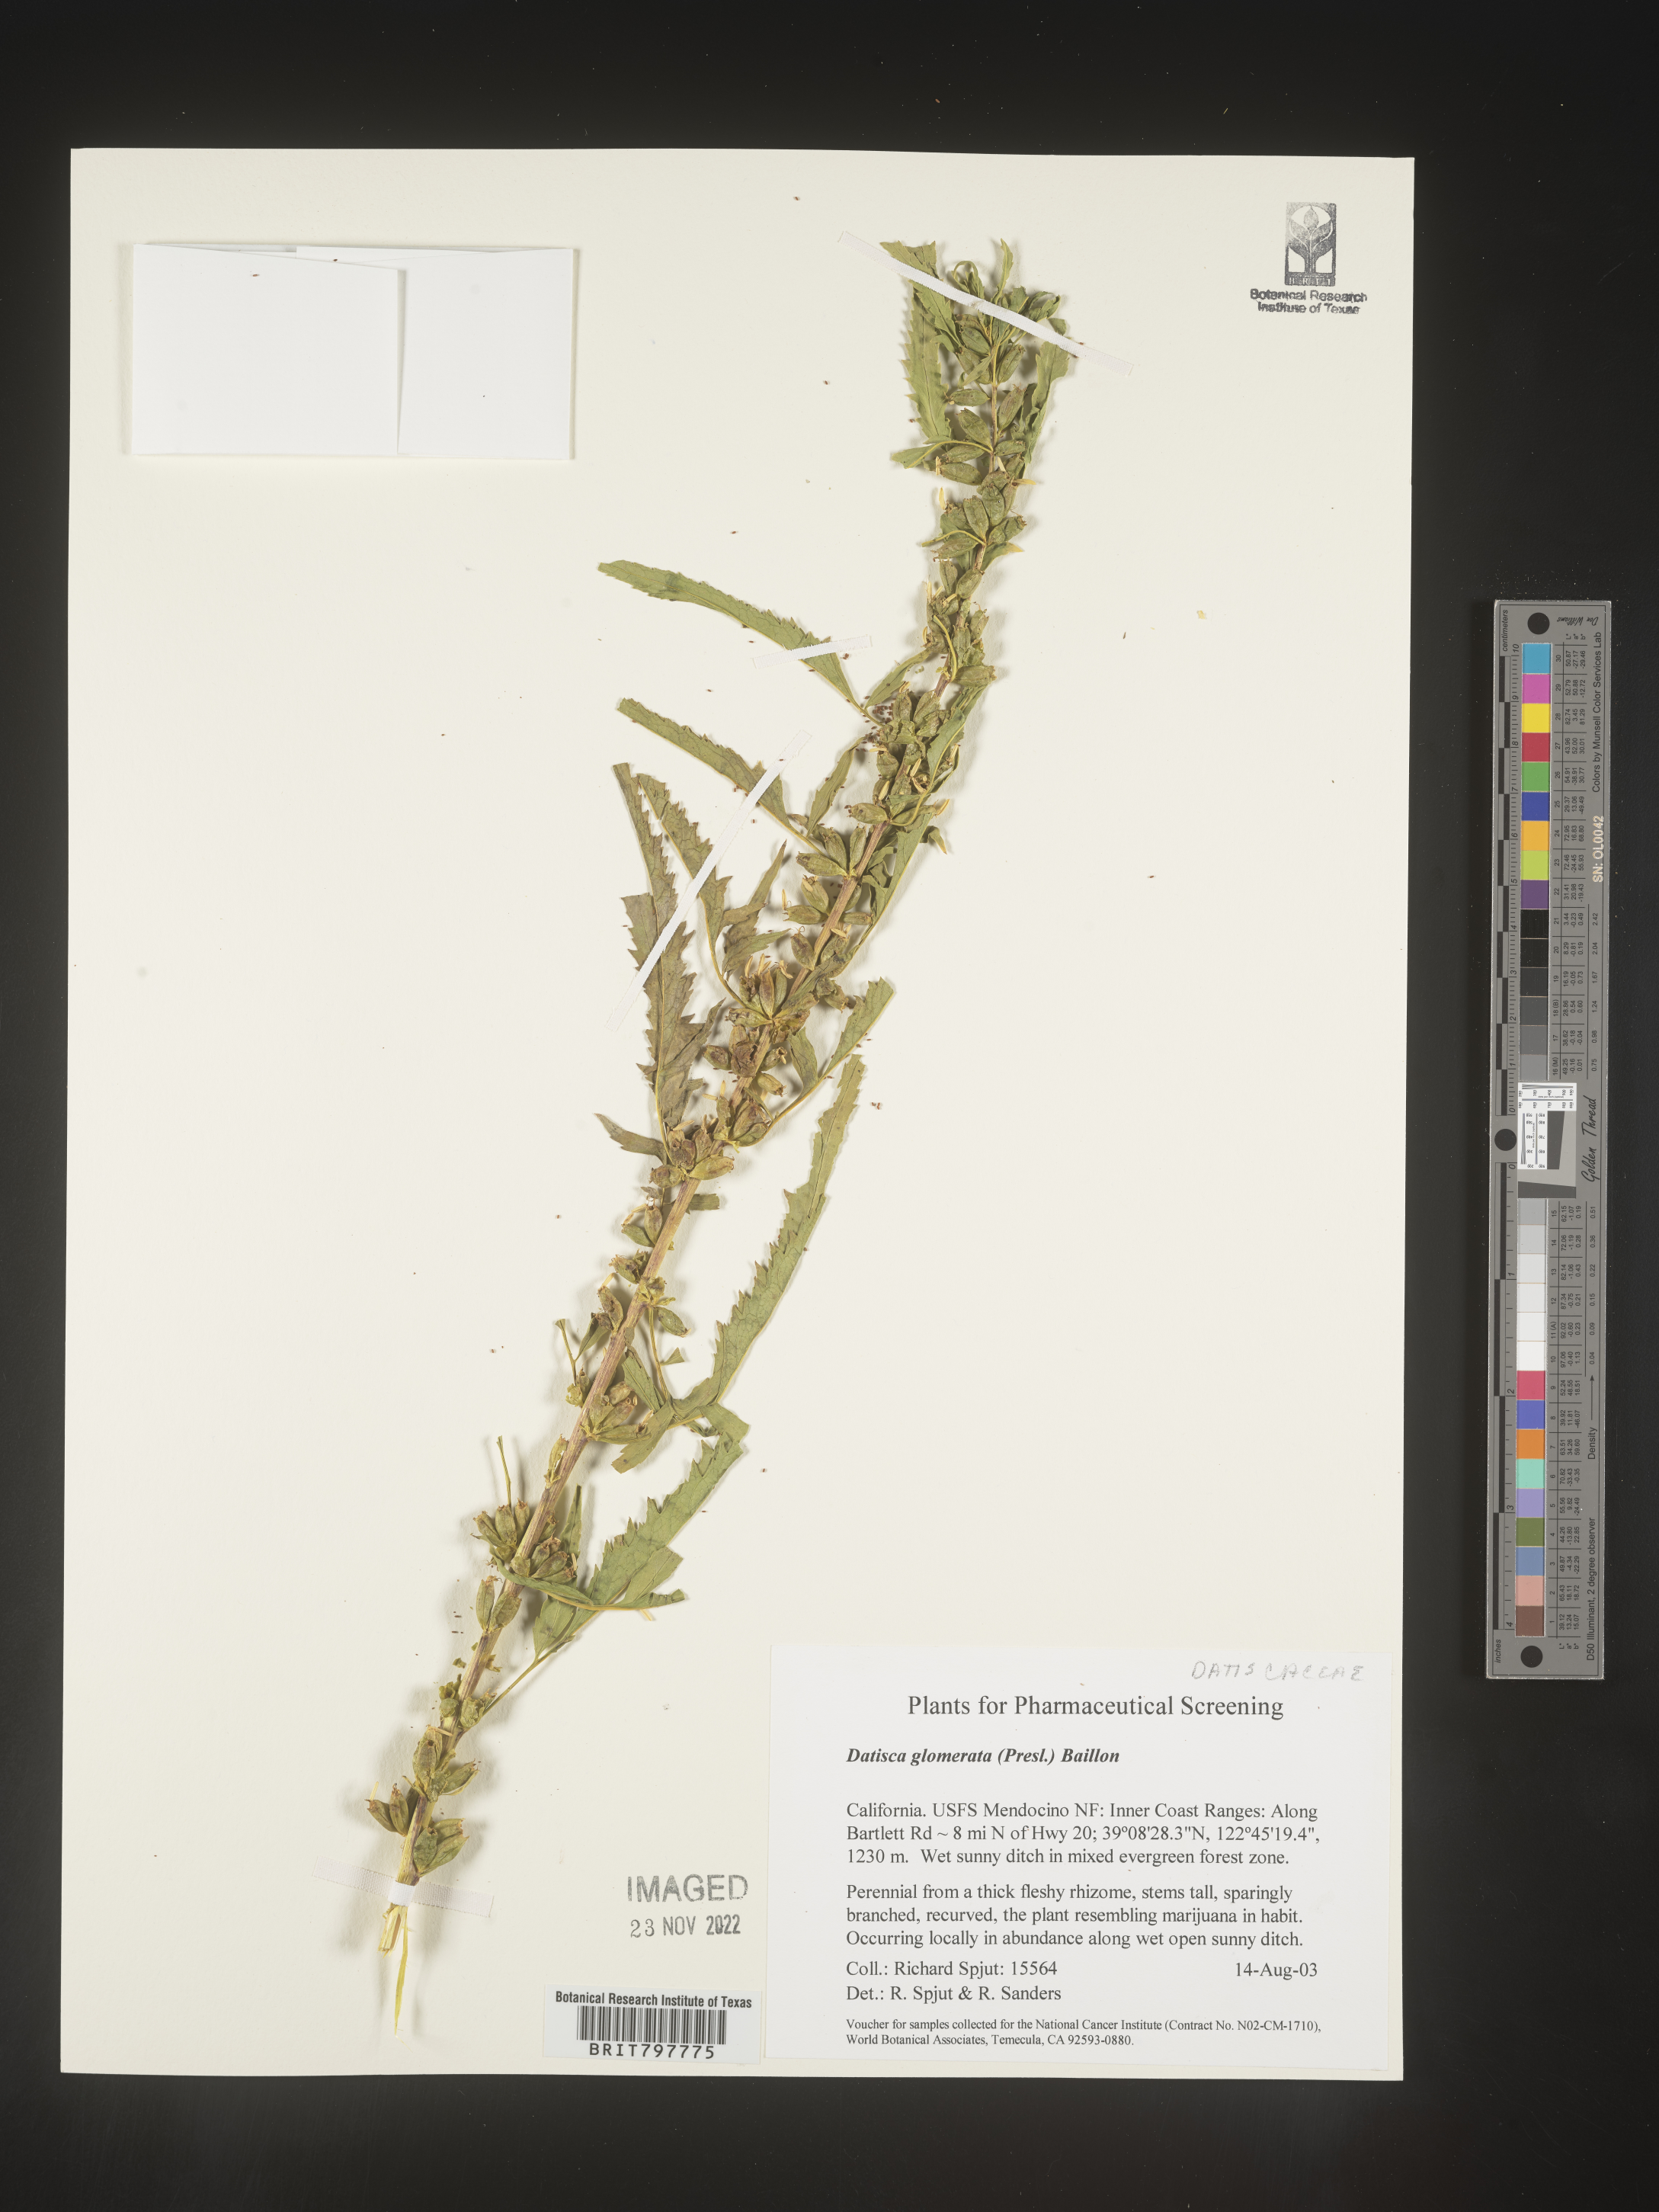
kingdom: Plantae
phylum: Tracheophyta
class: Magnoliopsida
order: Cucurbitales
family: Datiscaceae
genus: Datisca
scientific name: Datisca
